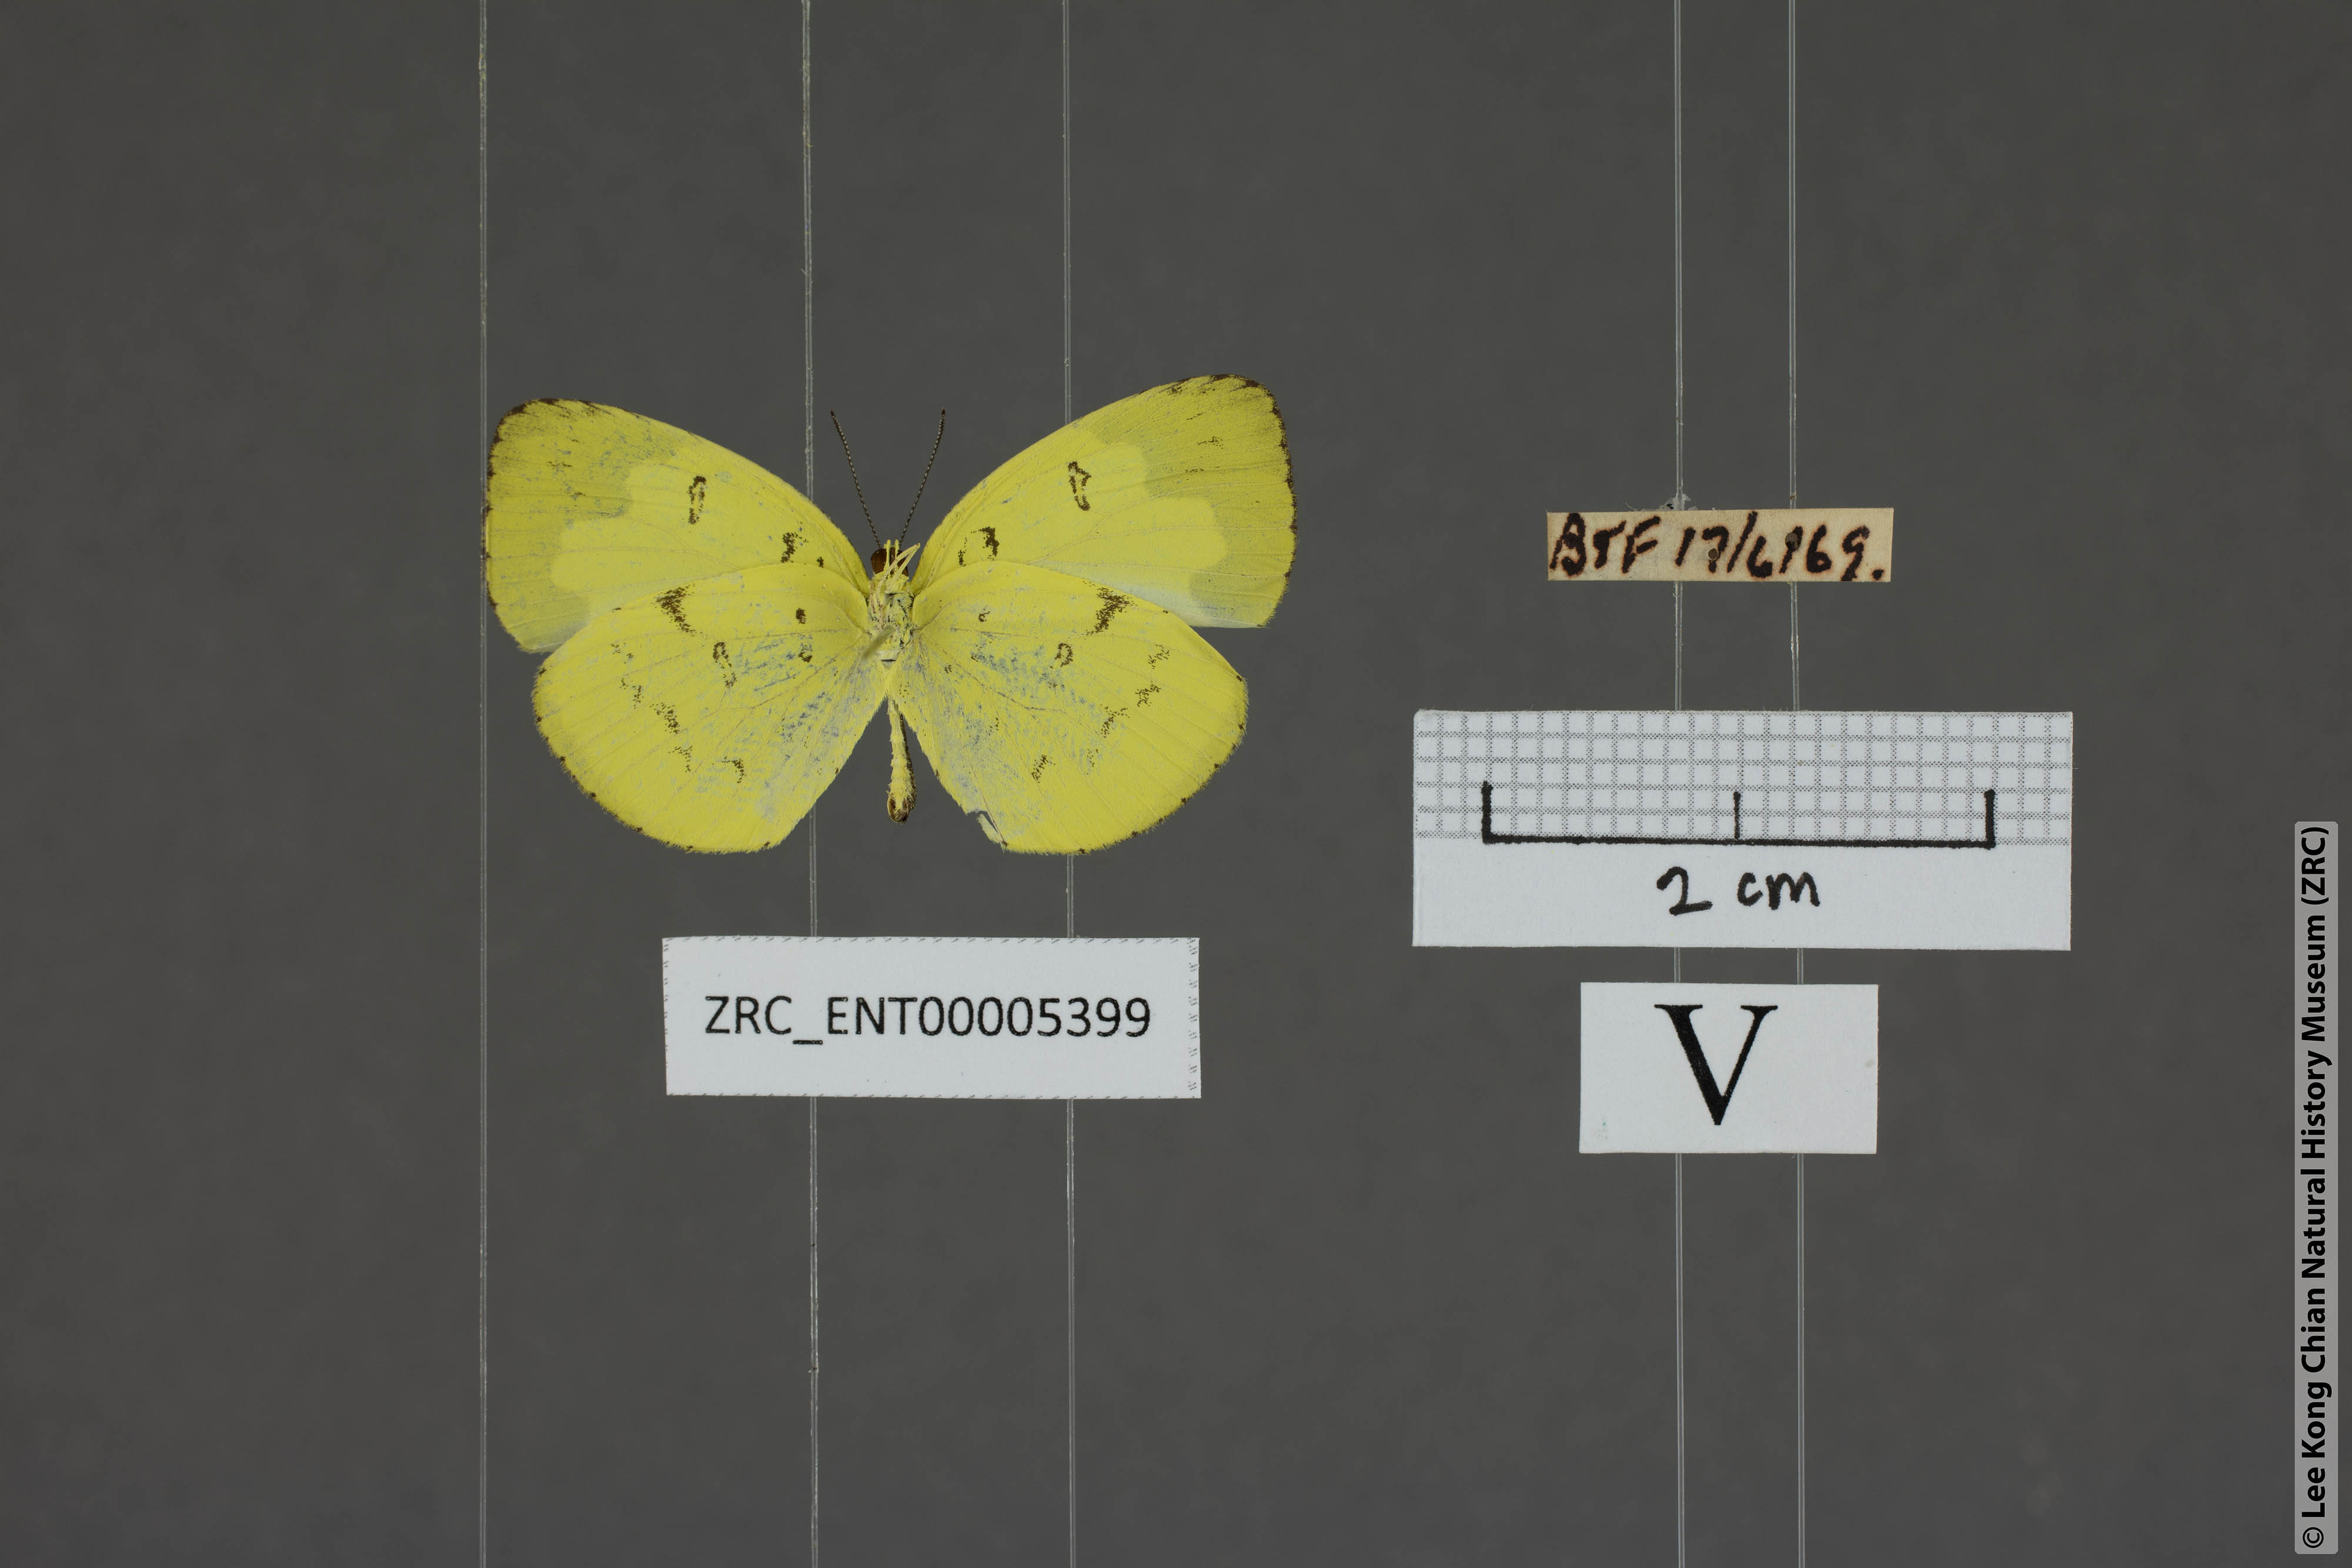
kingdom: Animalia
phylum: Arthropoda
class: Insecta
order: Lepidoptera
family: Pieridae
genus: Eurema
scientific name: Eurema ada
